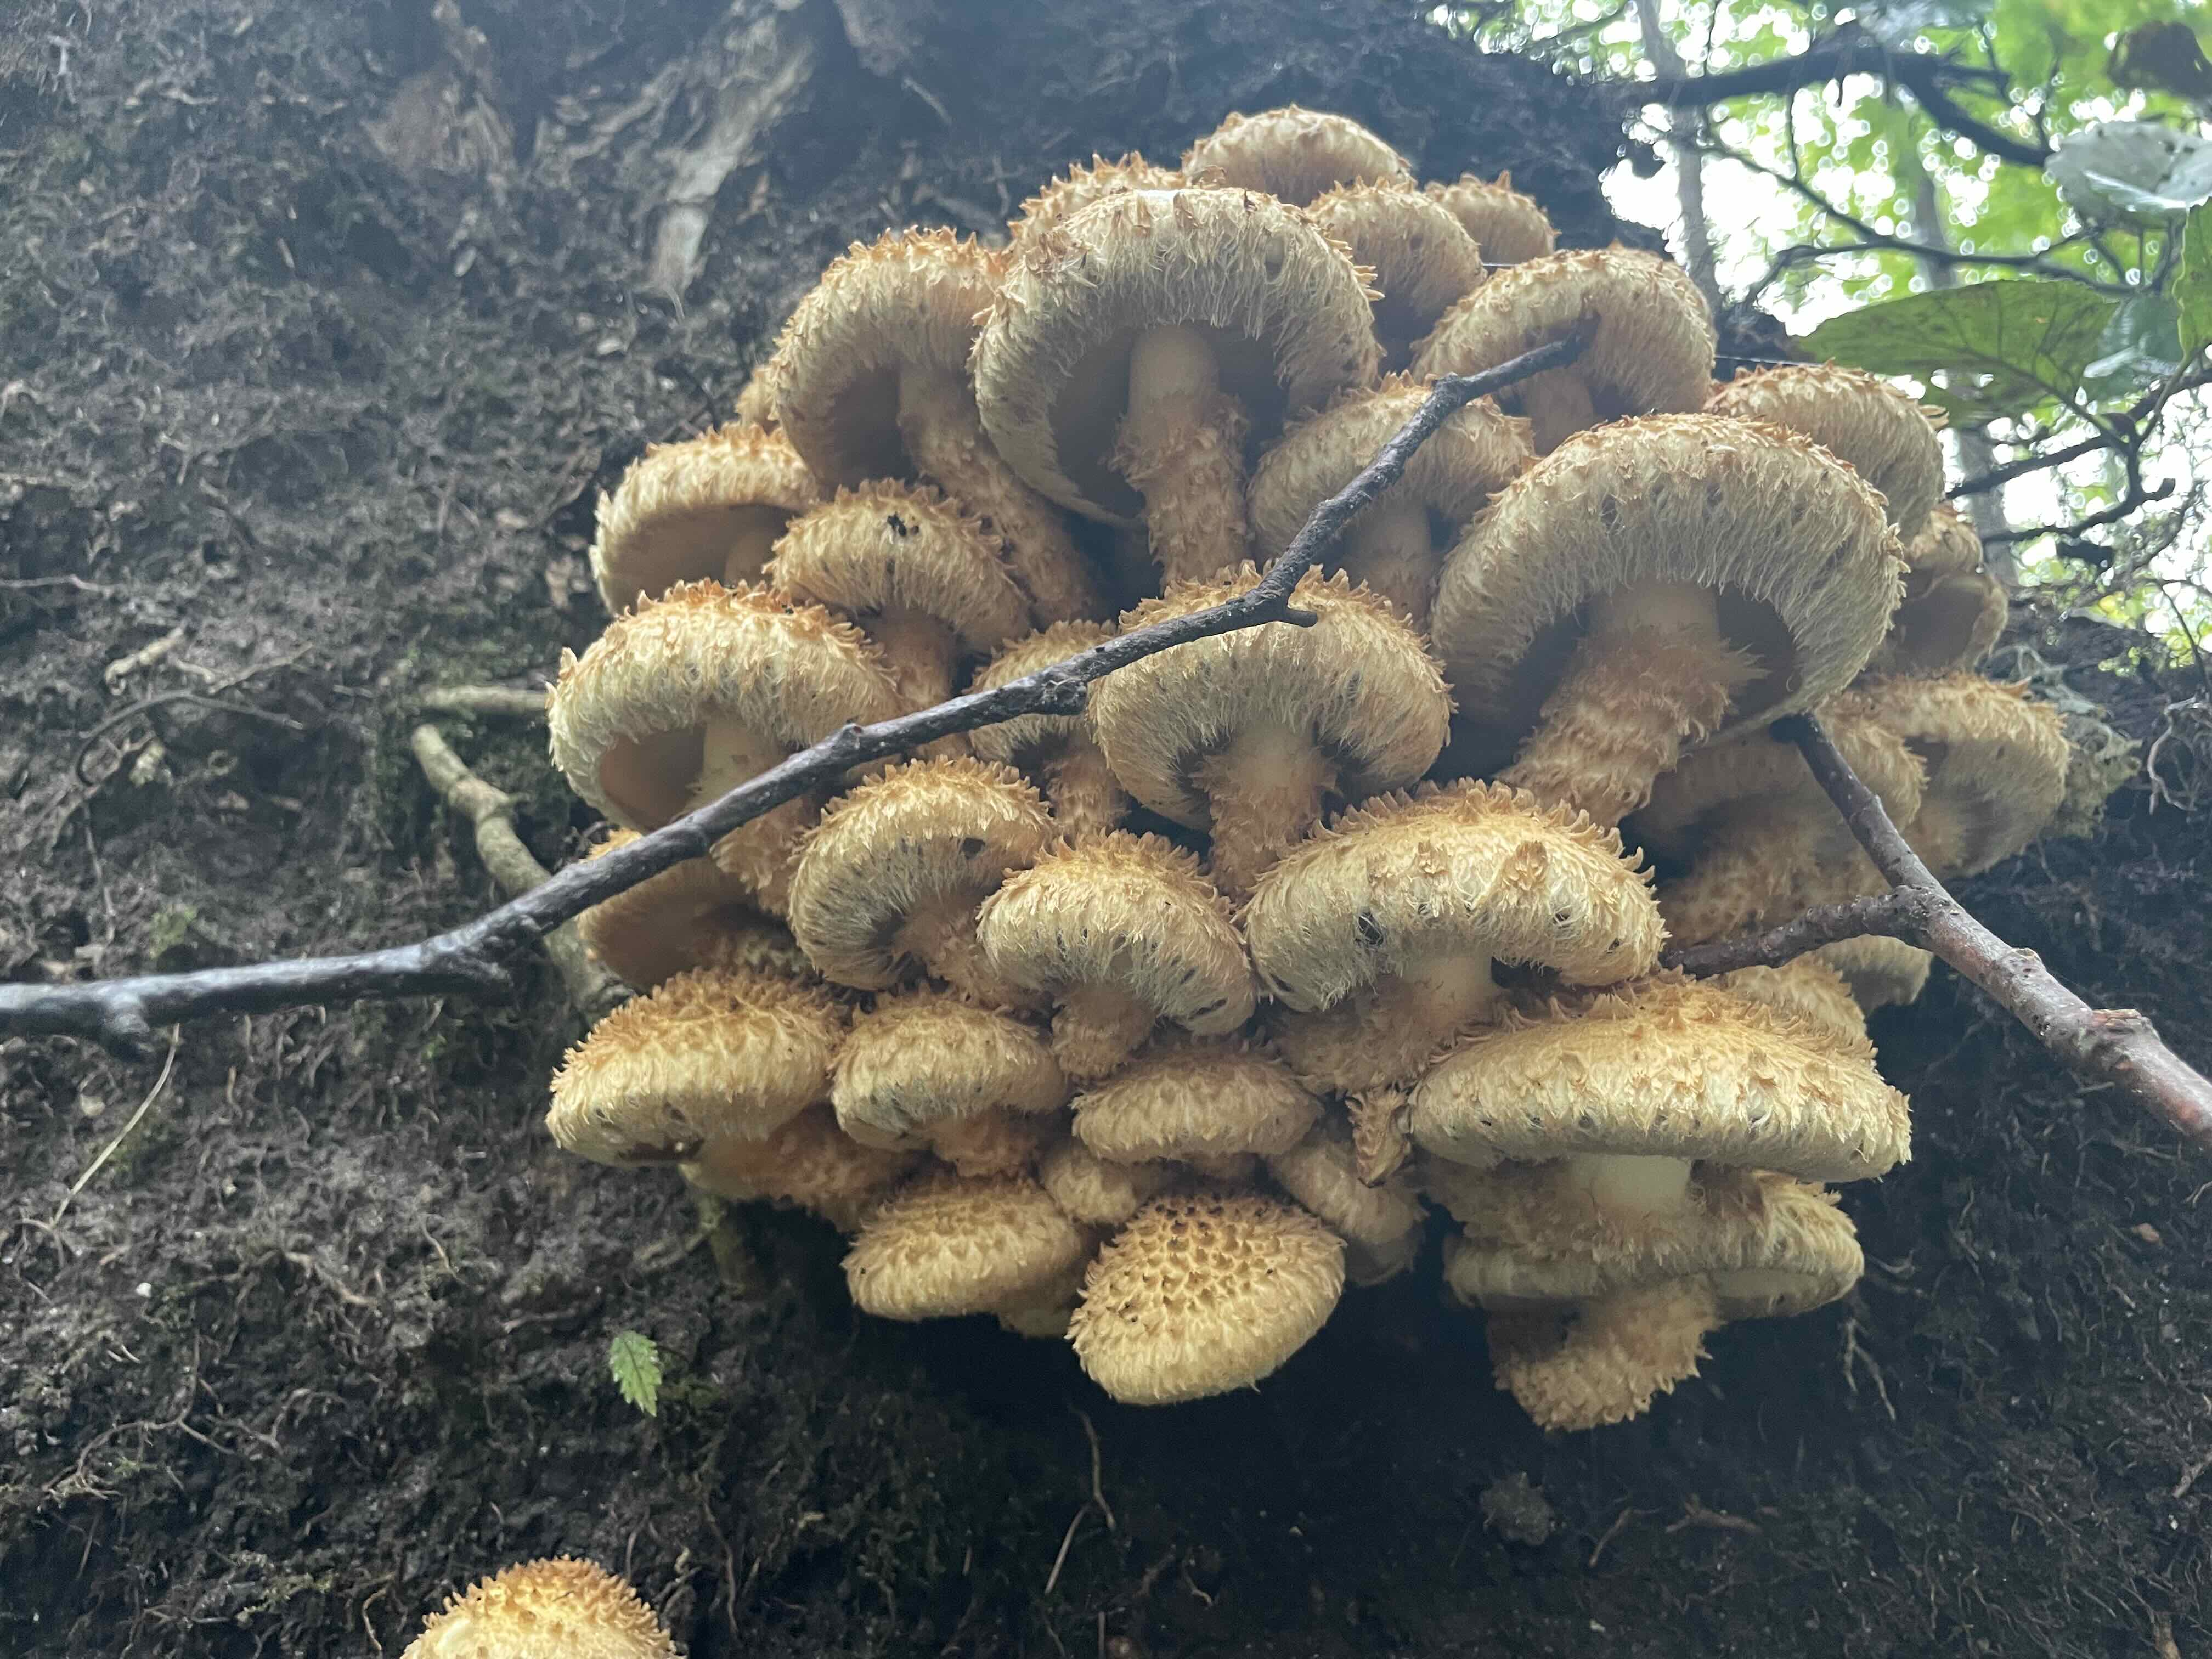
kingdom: Fungi
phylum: Basidiomycota
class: Agaricomycetes
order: Agaricales
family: Strophariaceae
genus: Pholiota
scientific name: Pholiota squarrosa
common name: krumskællet skælhat
